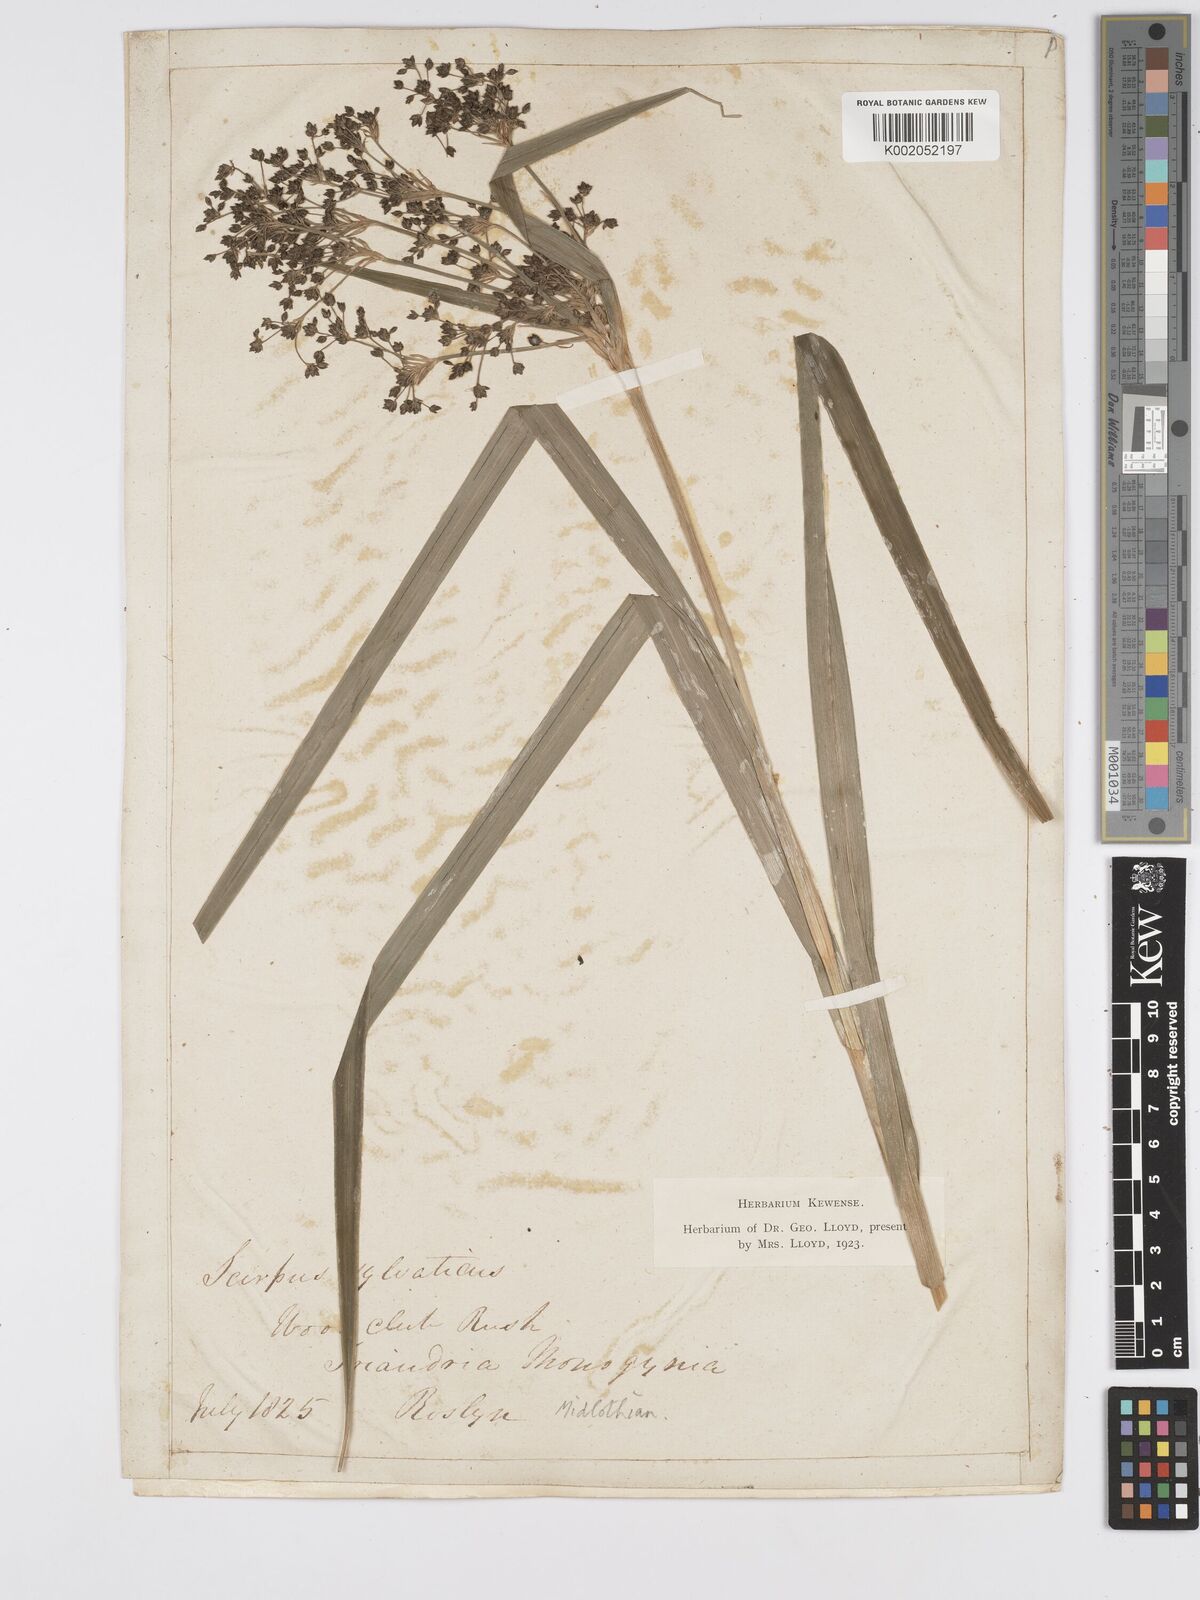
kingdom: Plantae
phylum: Tracheophyta
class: Liliopsida
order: Poales
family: Cyperaceae
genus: Scirpus
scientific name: Scirpus sylvaticus
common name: Wood club-rush
